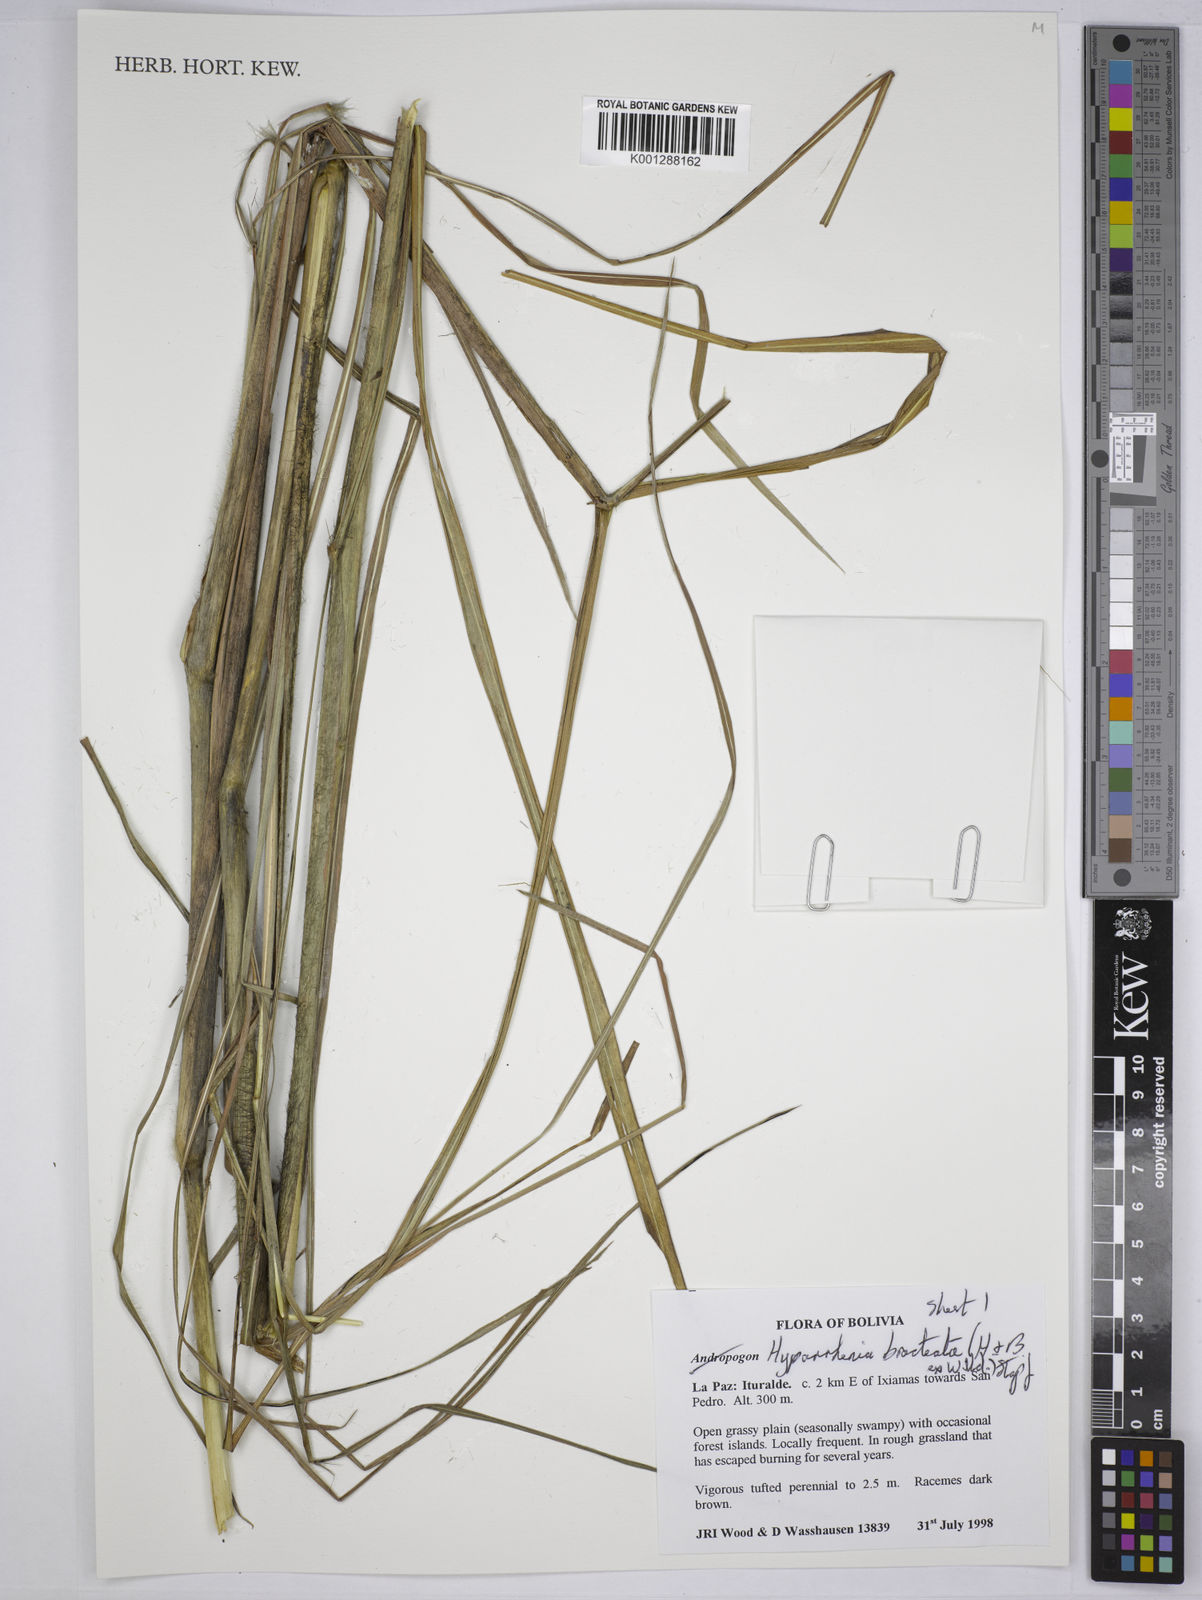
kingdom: Plantae
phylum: Tracheophyta
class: Liliopsida
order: Poales
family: Poaceae
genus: Hyparrhenia
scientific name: Hyparrhenia bracteata
